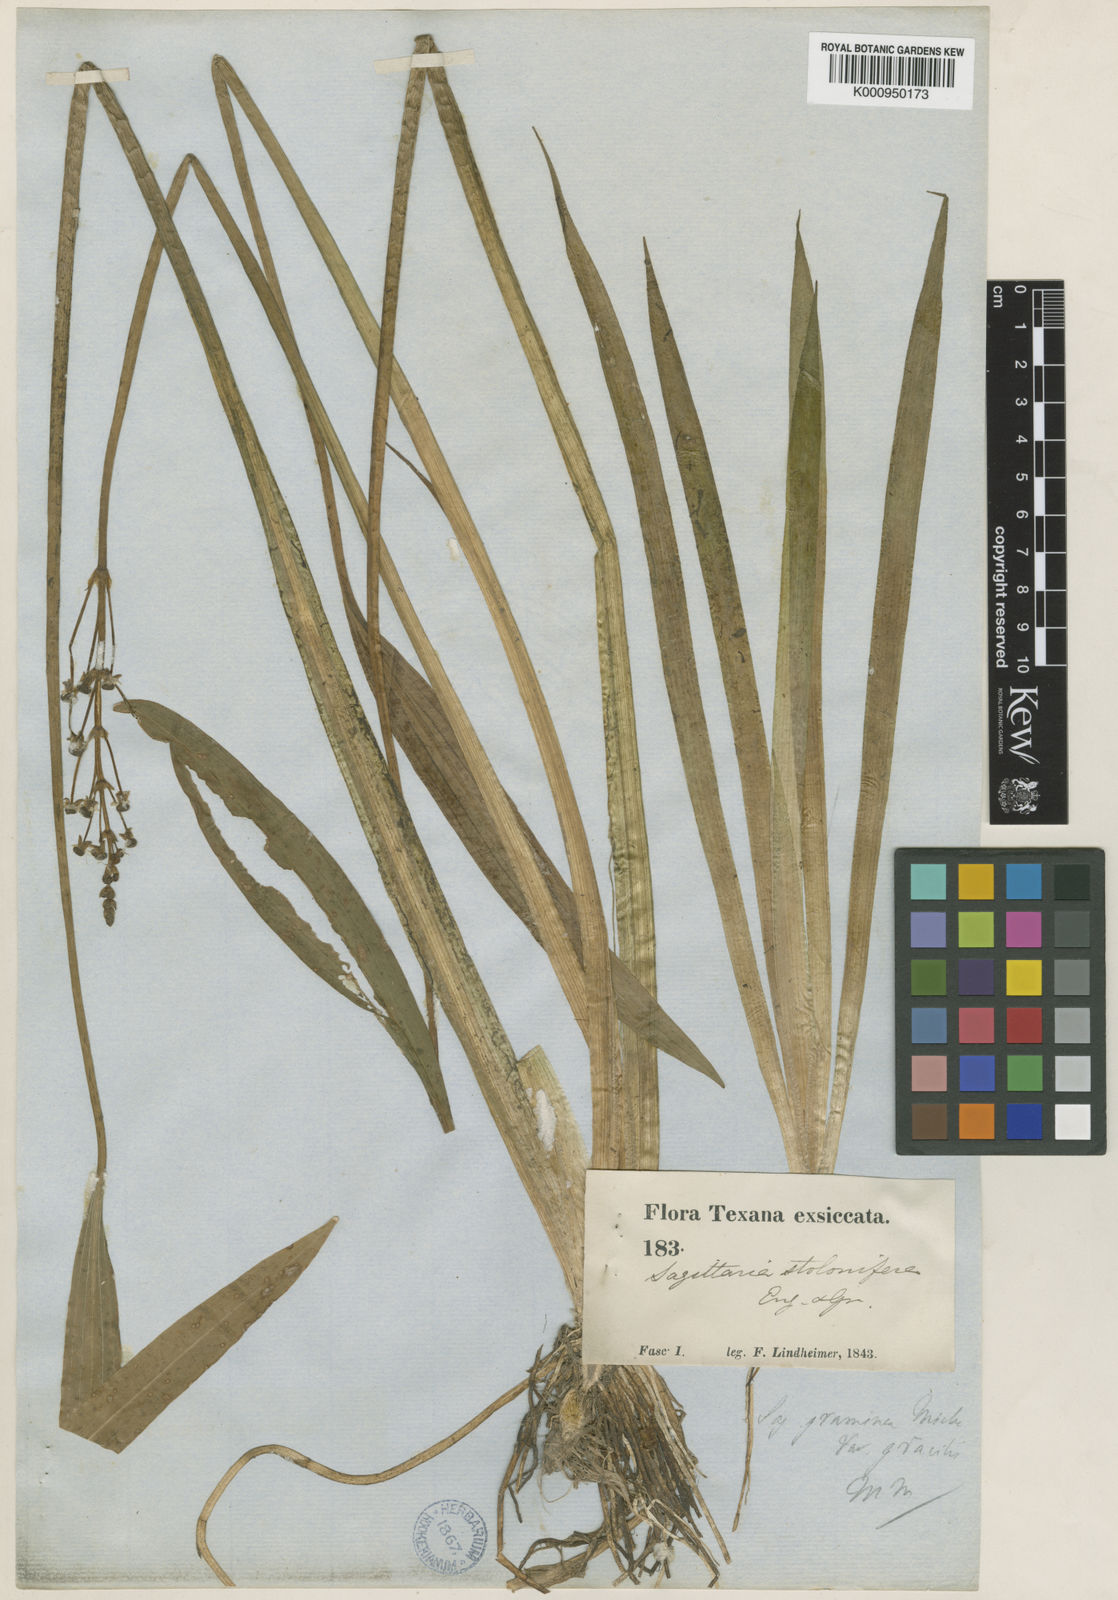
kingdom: Plantae
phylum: Tracheophyta
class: Liliopsida
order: Alismatales
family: Alismataceae
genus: Sagittaria
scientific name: Sagittaria graminea
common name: Grass-leaved arrowhead
